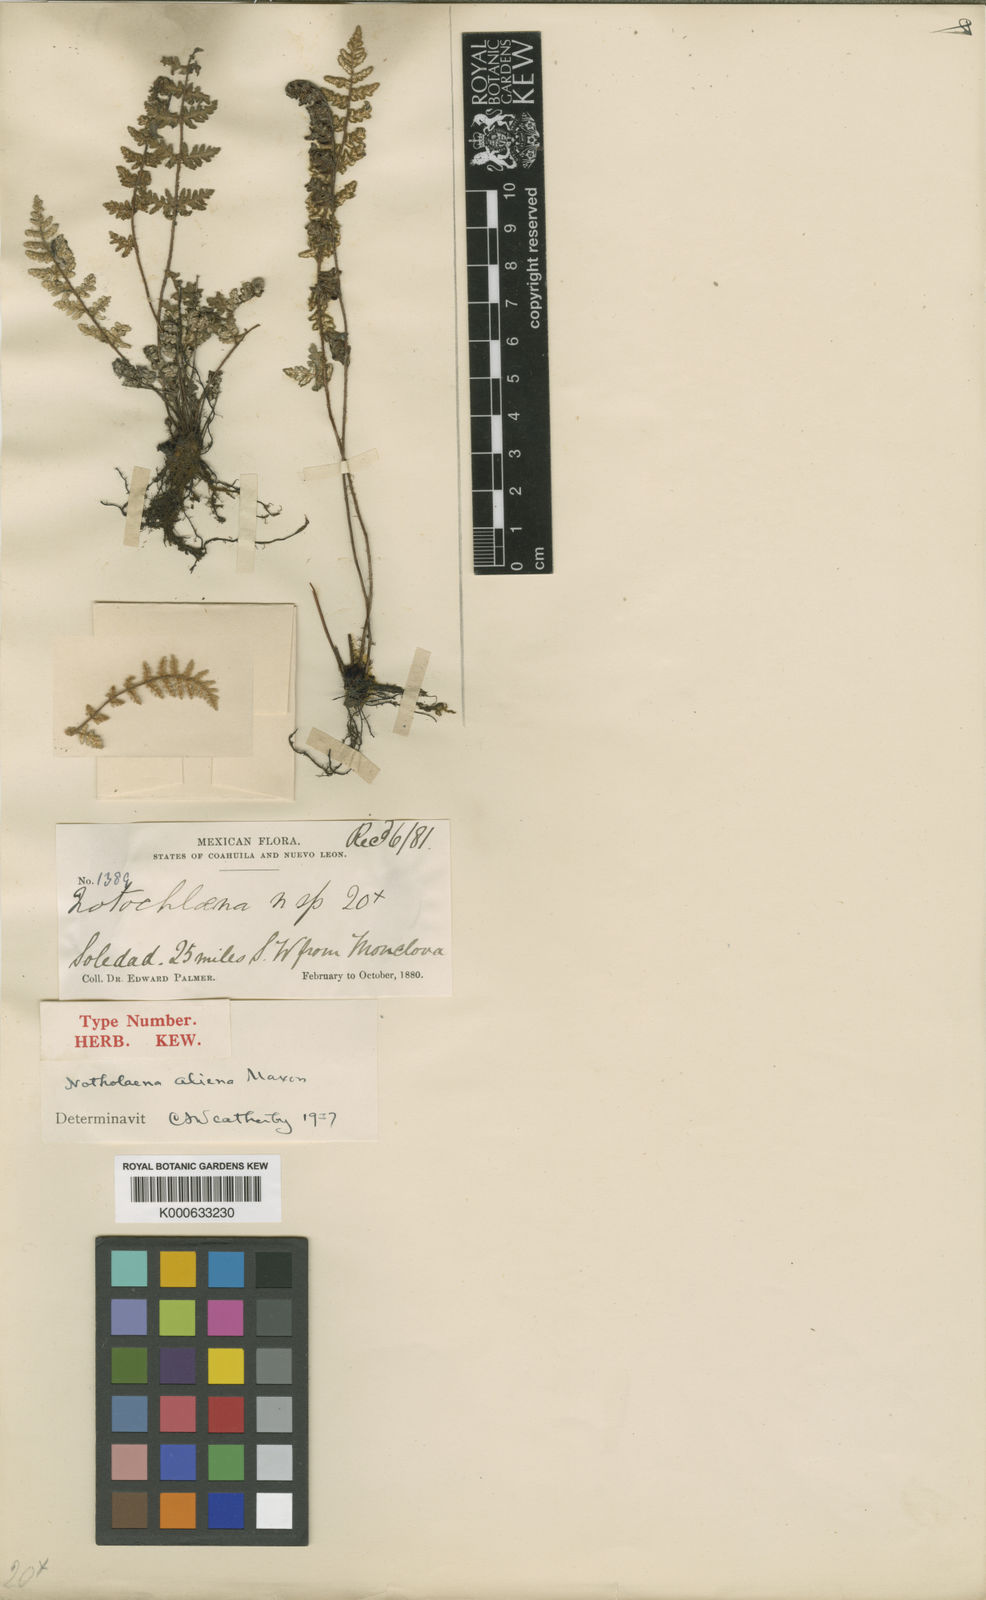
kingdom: Plantae
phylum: Tracheophyta
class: Polypodiopsida
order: Polypodiales
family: Pteridaceae
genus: Notholaena
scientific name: Notholaena aliena
